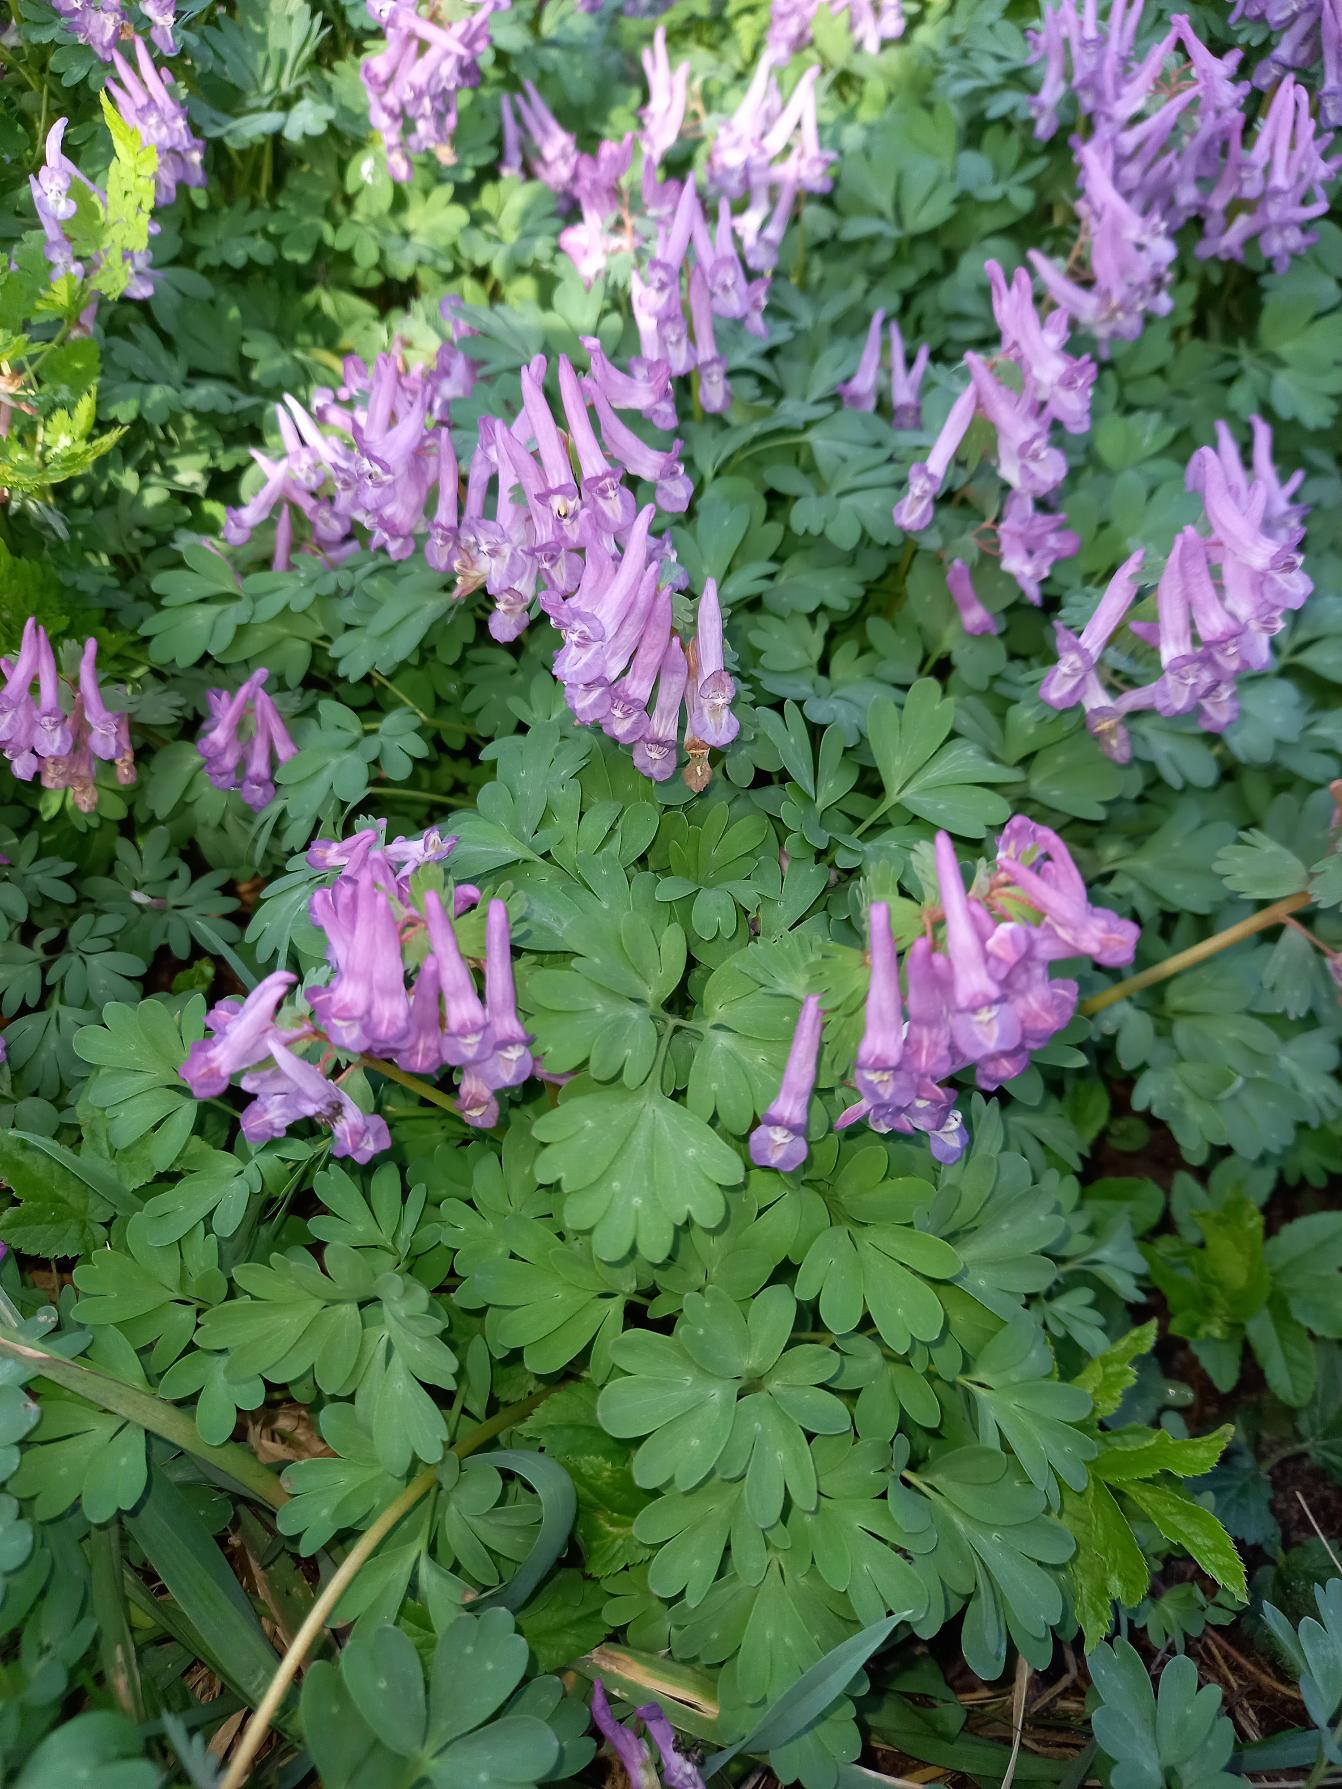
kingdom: Plantae
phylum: Tracheophyta
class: Magnoliopsida
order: Ranunculales
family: Papaveraceae
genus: Corydalis
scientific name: Corydalis solida
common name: Langstilket lærkespore
